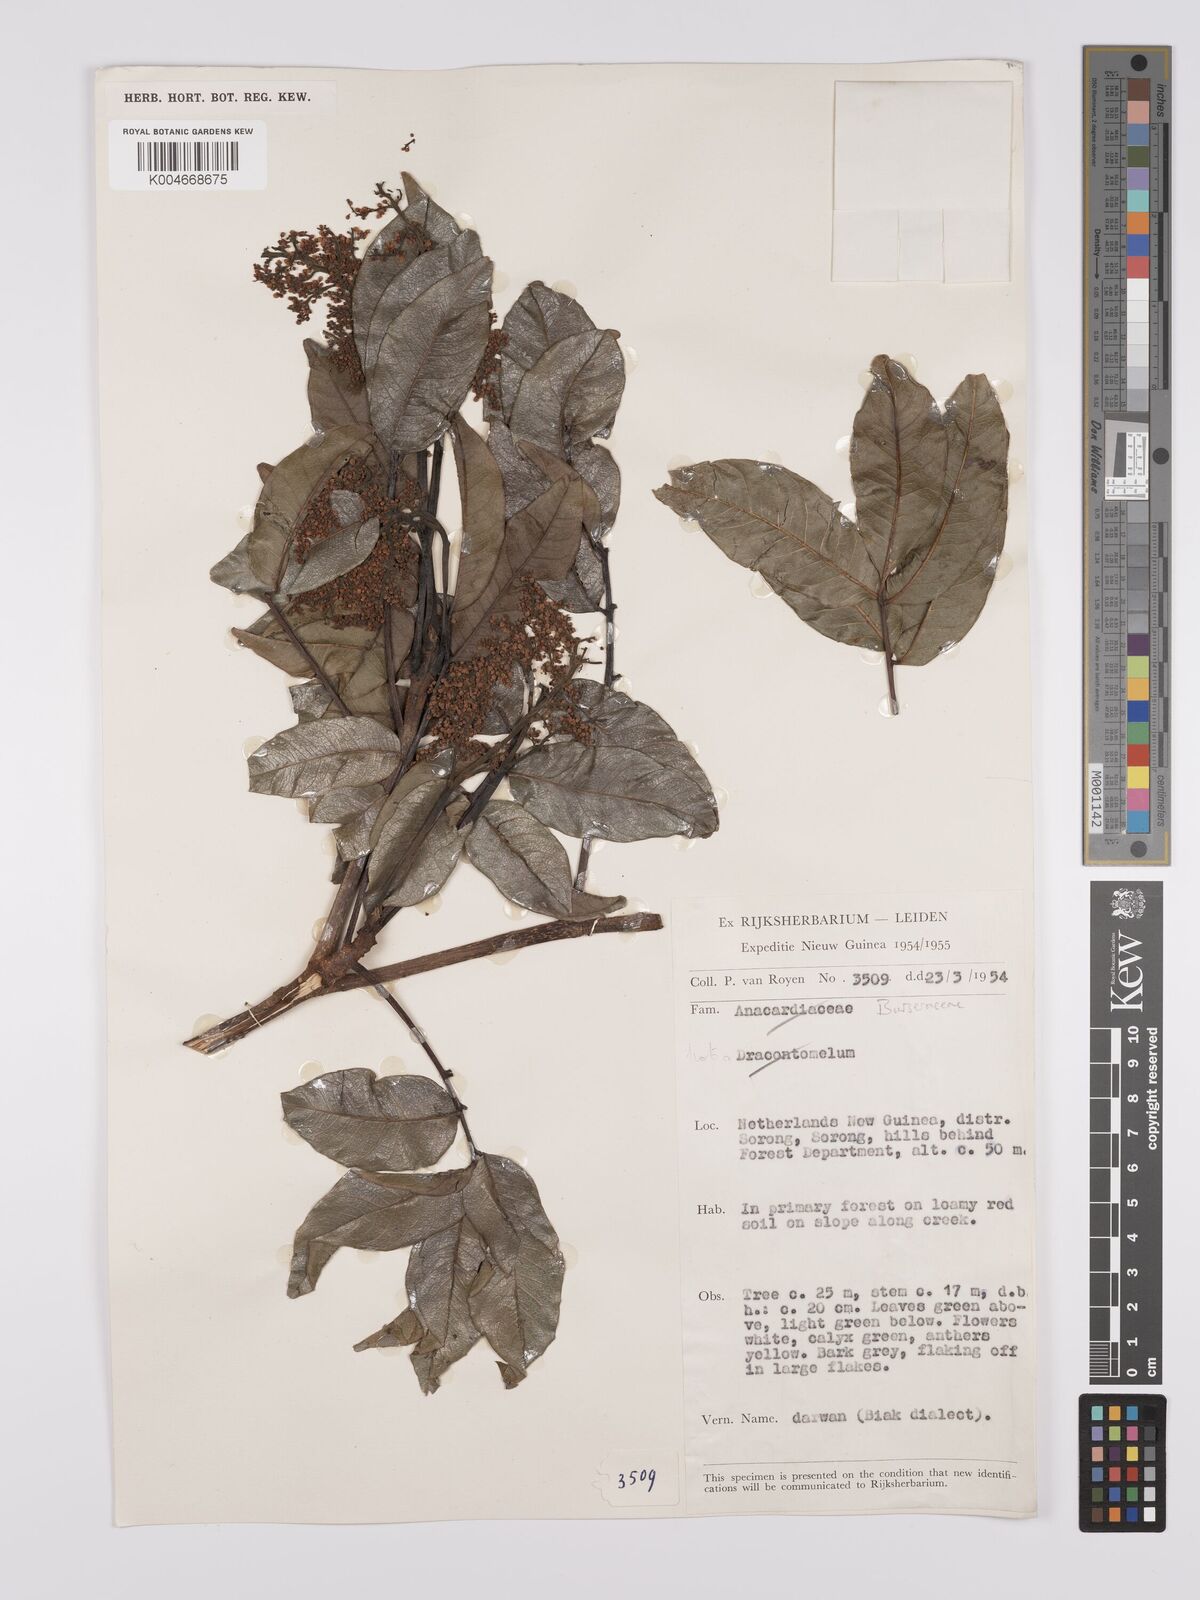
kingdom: Plantae
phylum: Tracheophyta
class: Magnoliopsida
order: Sapindales
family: Burseraceae
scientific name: Burseraceae
